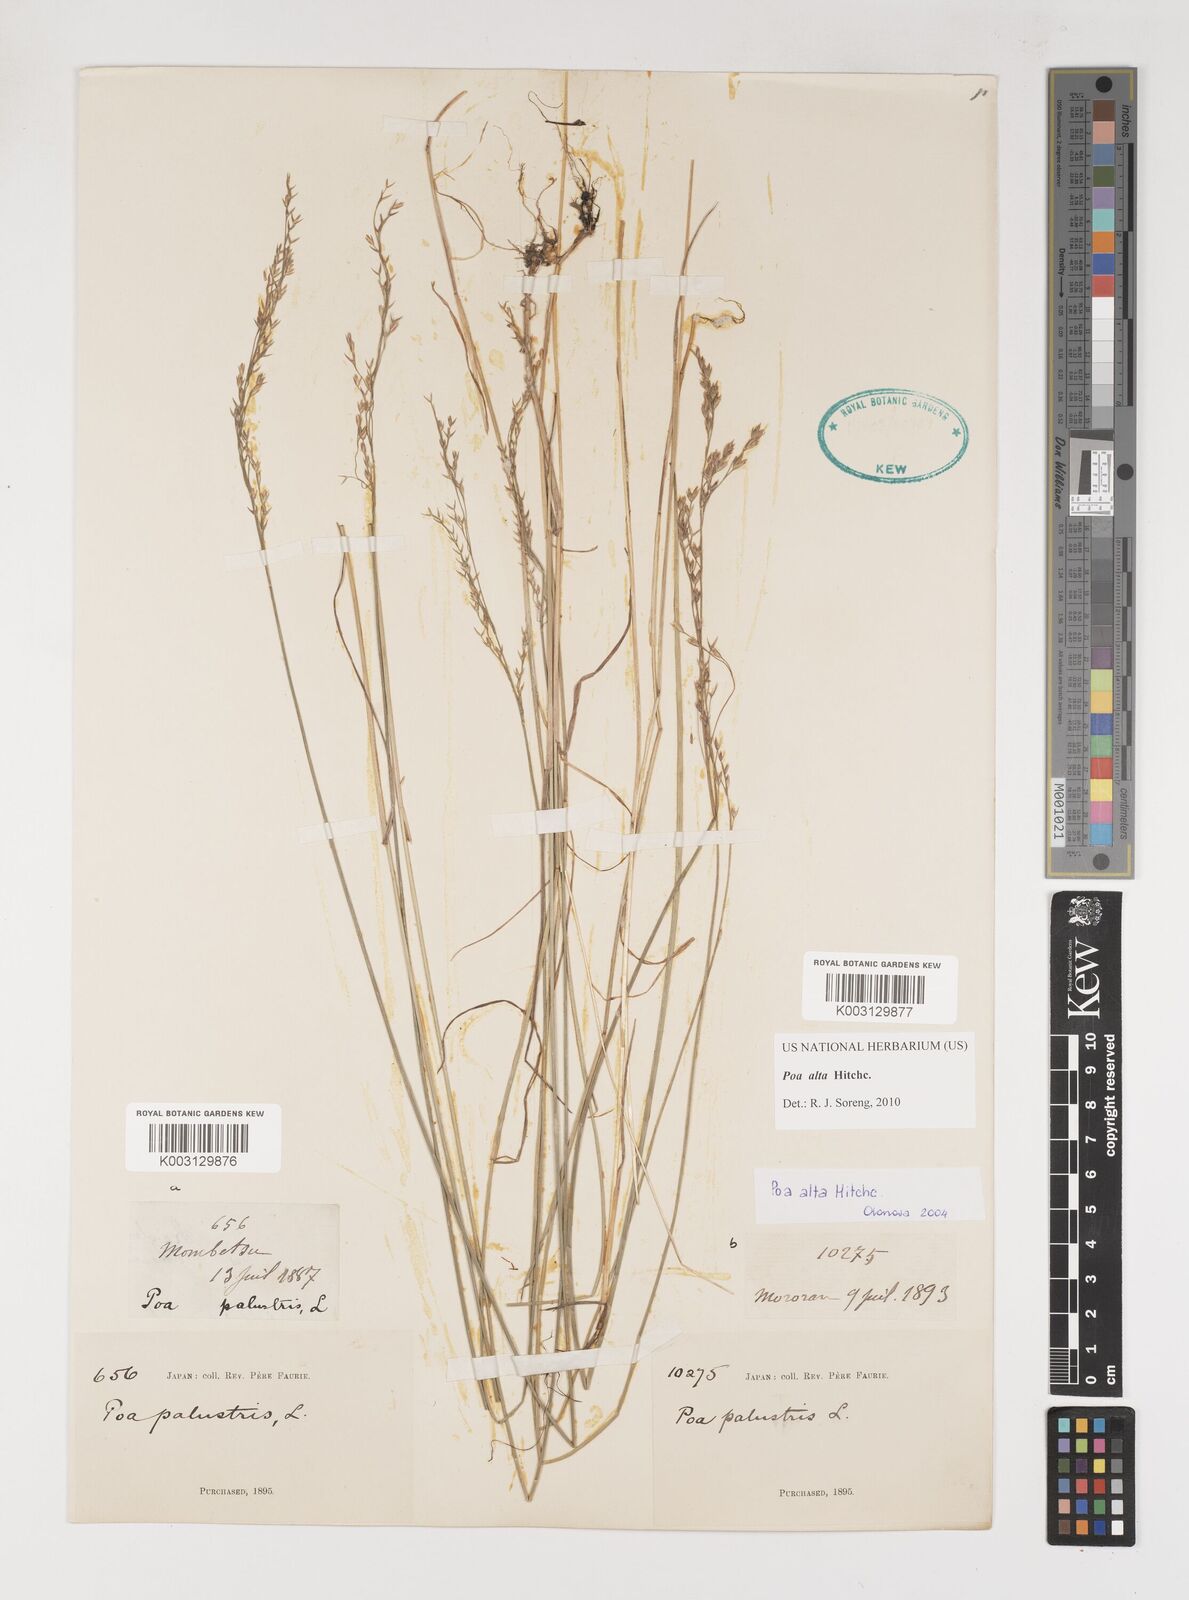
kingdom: Plantae
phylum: Tracheophyta
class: Liliopsida
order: Poales
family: Poaceae
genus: Poa
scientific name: Poa alta
